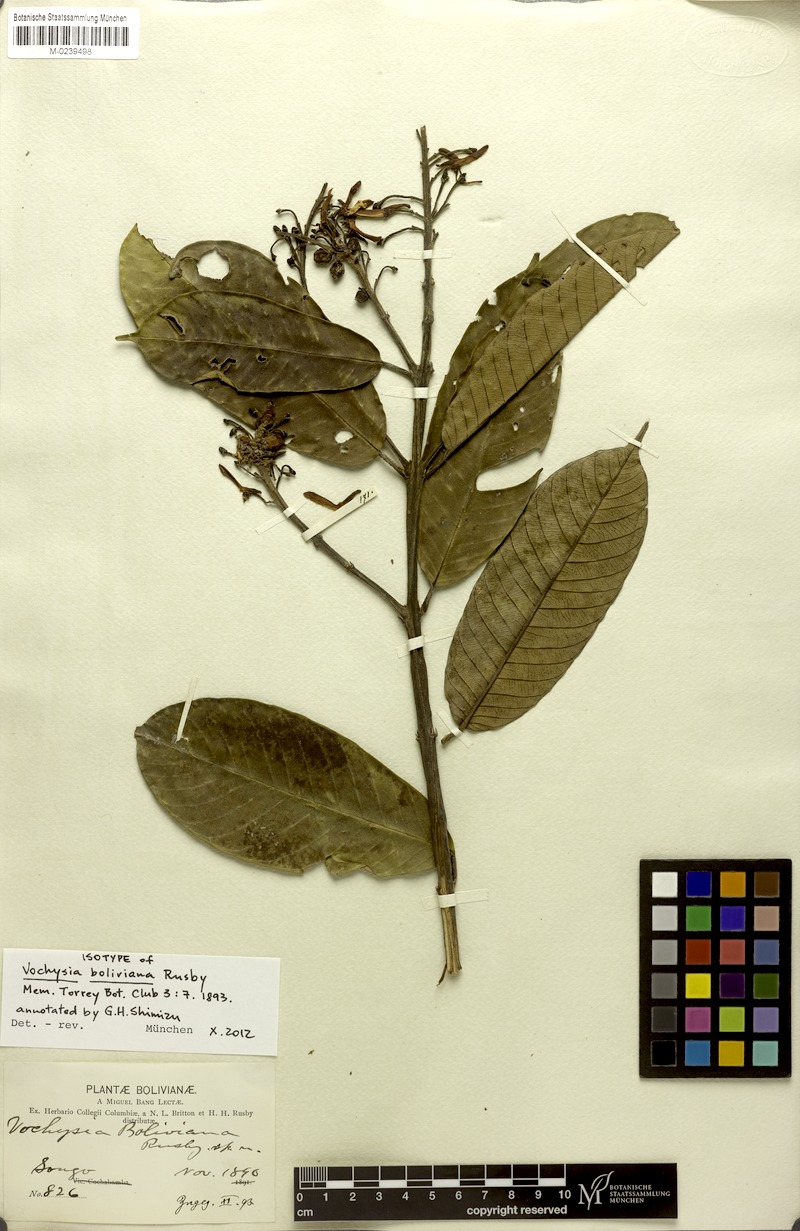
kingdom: Plantae
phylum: Tracheophyta
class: Magnoliopsida
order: Myrtales
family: Vochysiaceae
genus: Vochysia
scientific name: Vochysia boliviana
